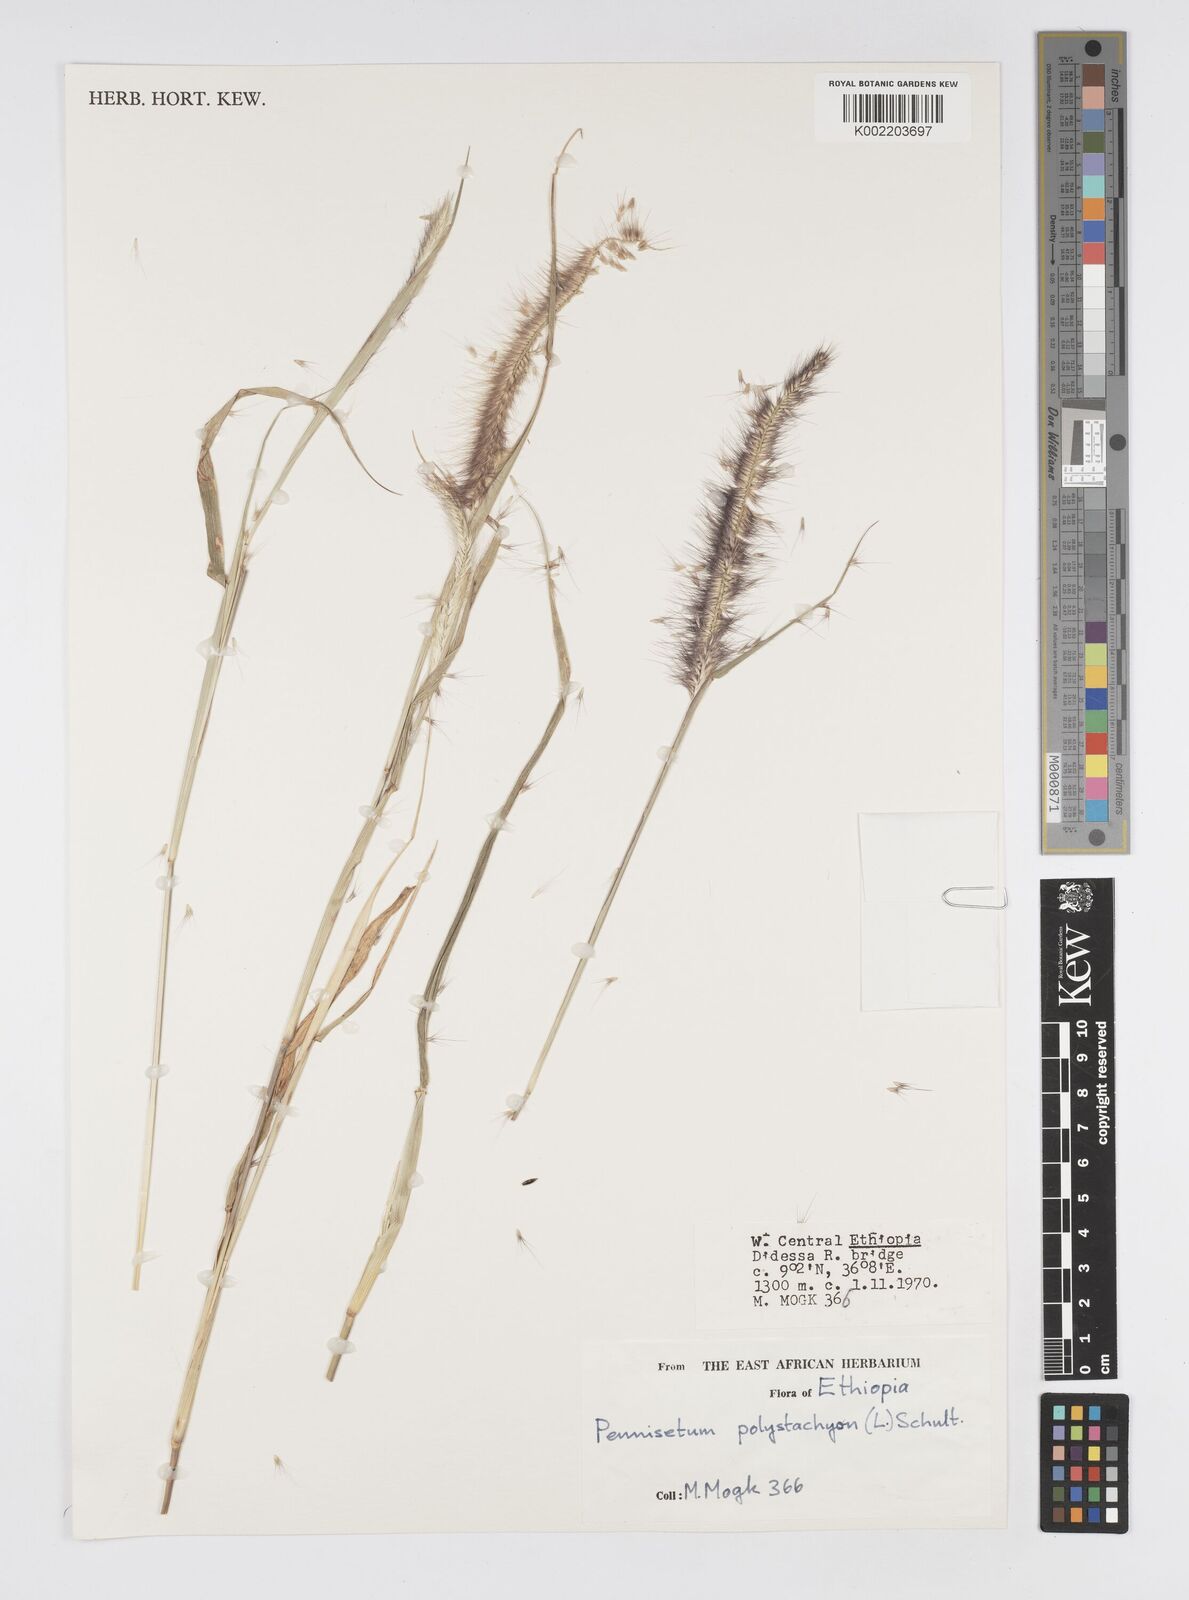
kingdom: Plantae
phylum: Tracheophyta
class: Liliopsida
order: Poales
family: Poaceae
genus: Setaria
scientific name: Setaria parviflora
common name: Knotroot bristle-grass
